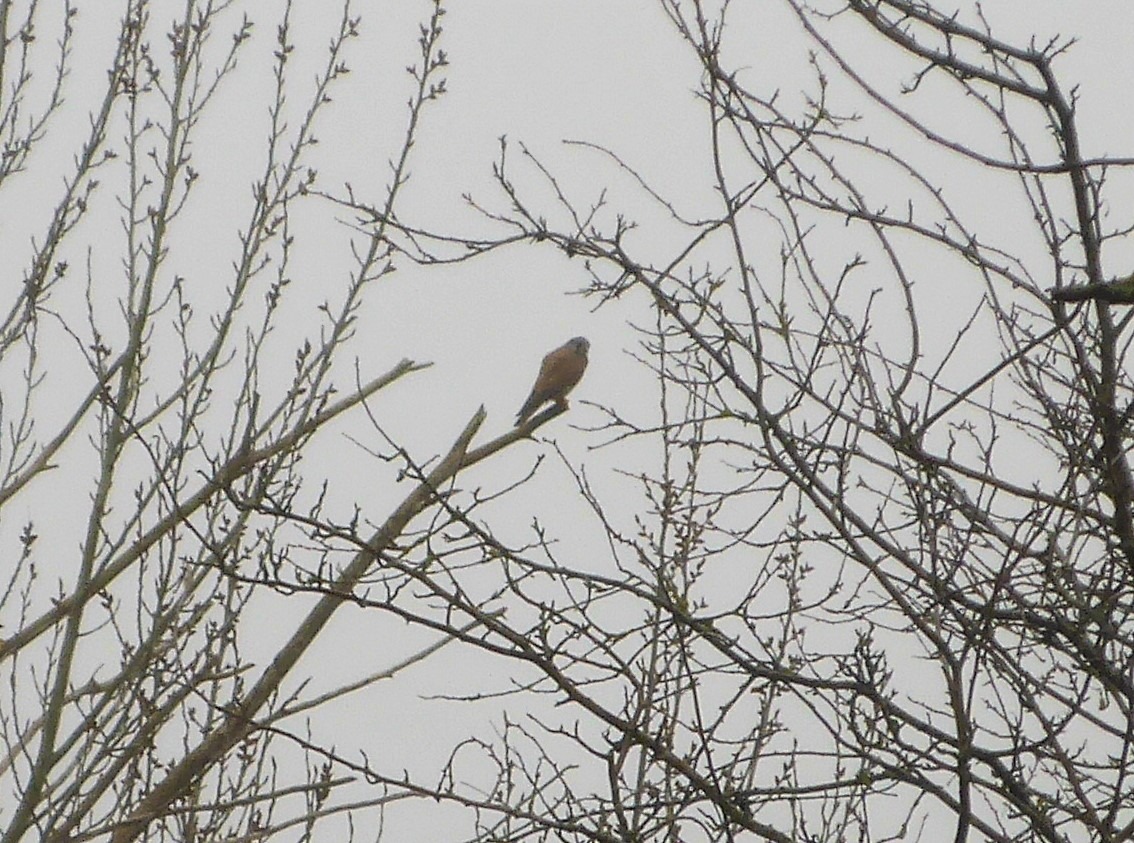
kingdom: Animalia
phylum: Chordata
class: Aves
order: Falconiformes
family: Falconidae
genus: Falco
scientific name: Falco tinnunculus
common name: Tårnfalk
